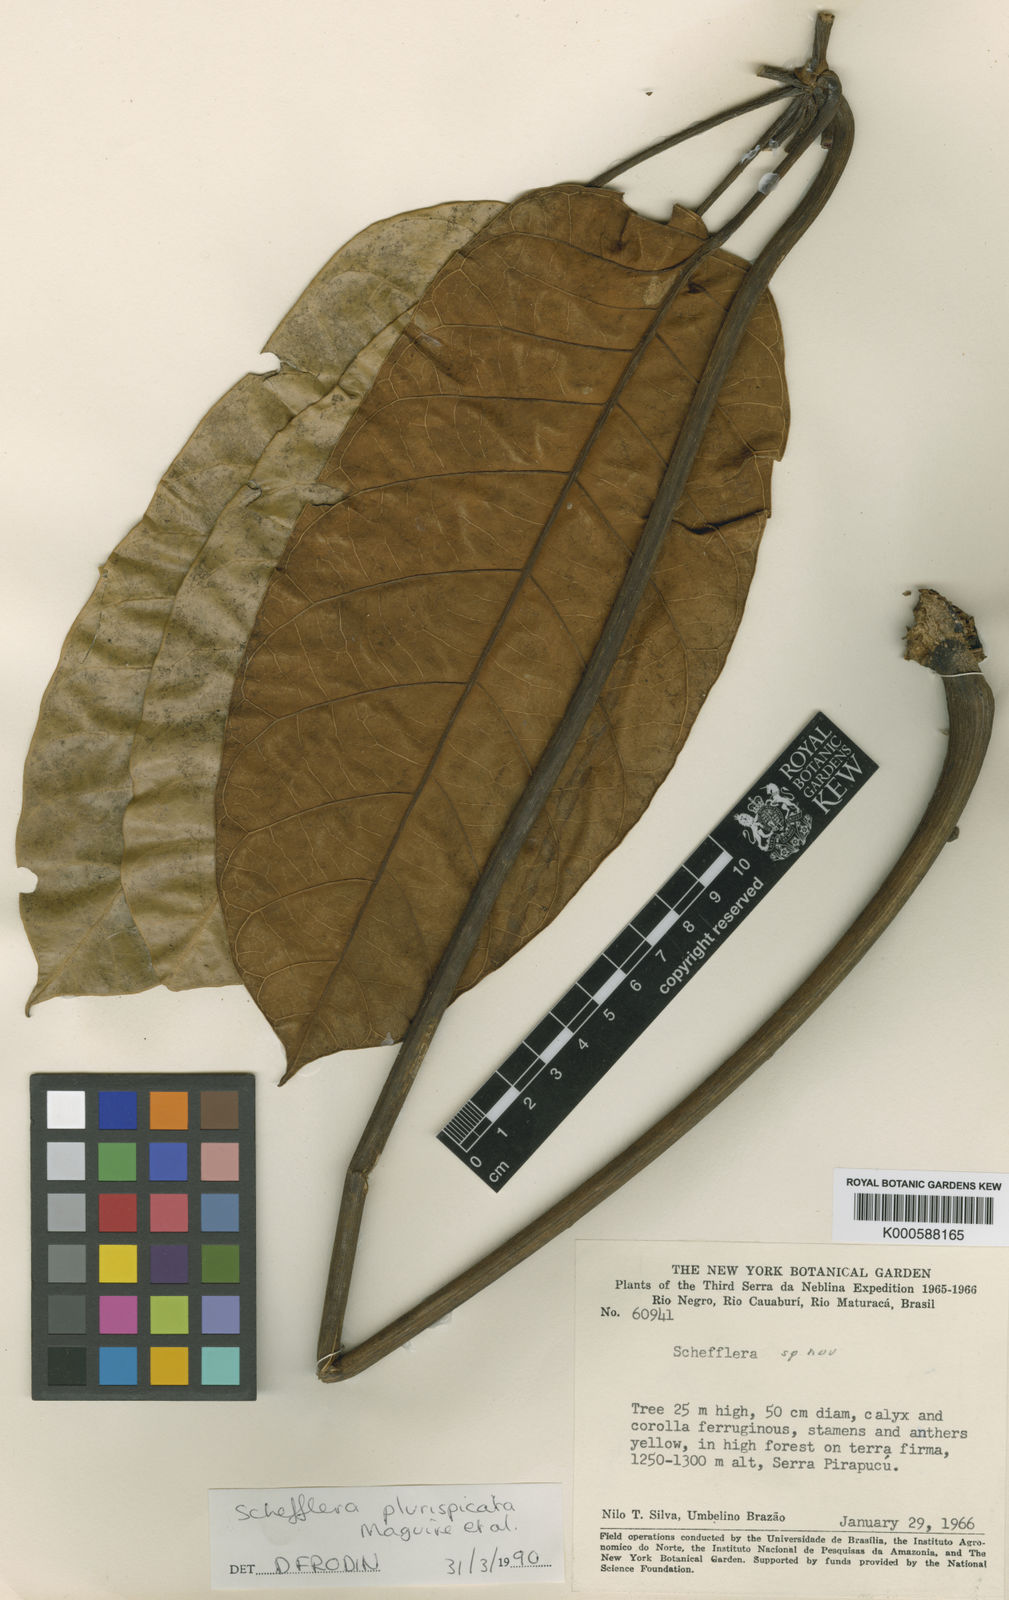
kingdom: Plantae
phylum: Tracheophyta
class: Magnoliopsida
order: Apiales
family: Araliaceae
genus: Didymopanax
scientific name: Didymopanax plurispicatus
